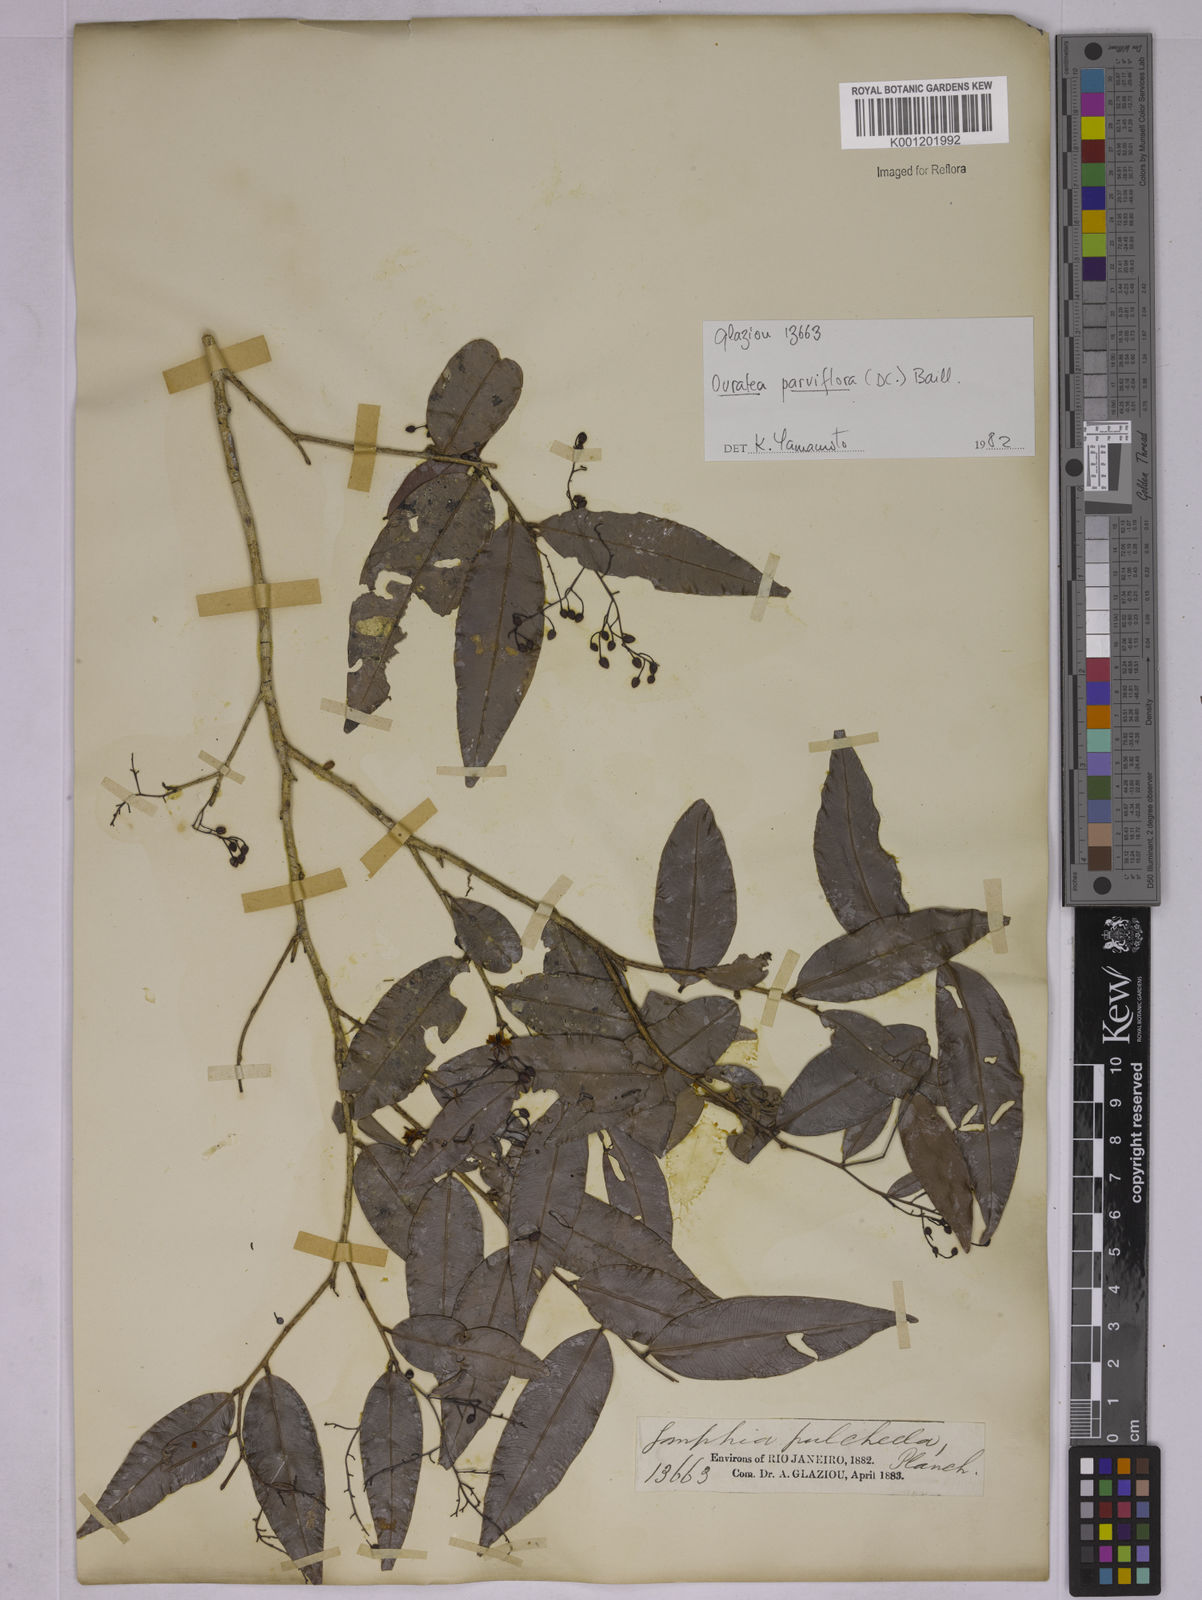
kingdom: Plantae
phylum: Tracheophyta
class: Magnoliopsida
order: Malpighiales
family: Ochnaceae
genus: Ouratea
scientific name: Ouratea parviflora
